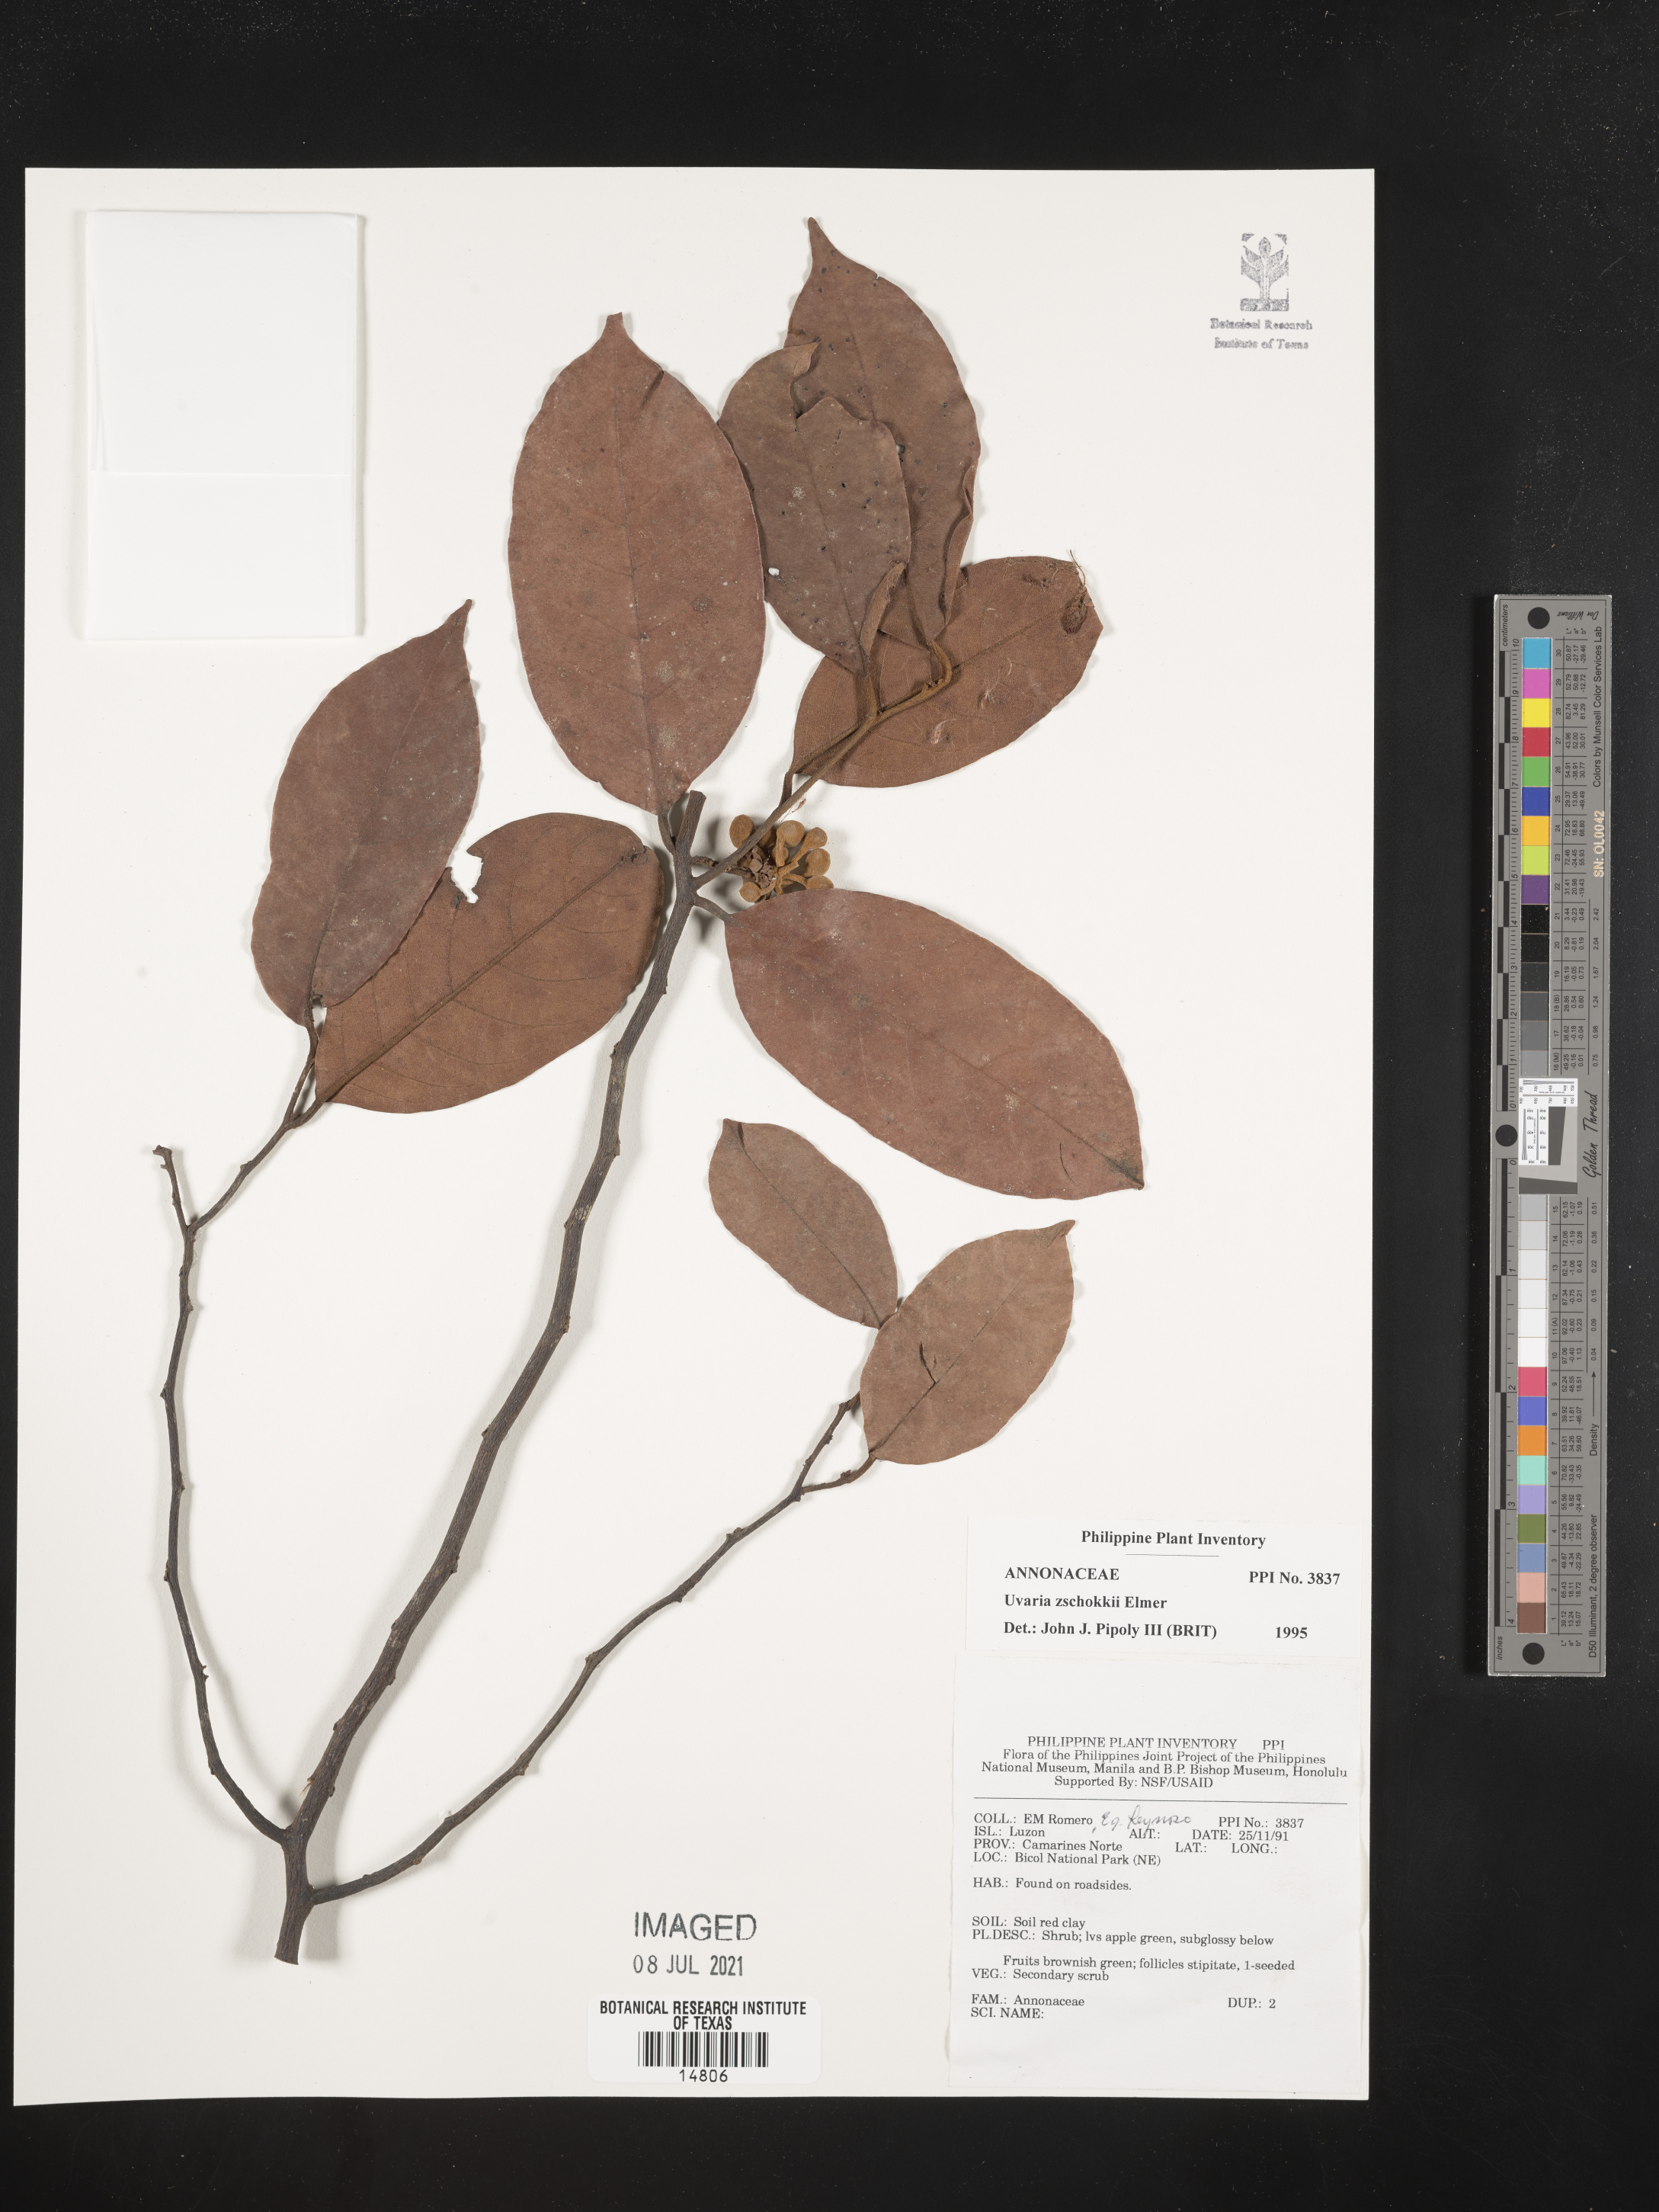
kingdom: Plantae
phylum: Tracheophyta
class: Magnoliopsida
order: Magnoliales
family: Annonaceae
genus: Uvaria
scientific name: Uvaria zschokkei
